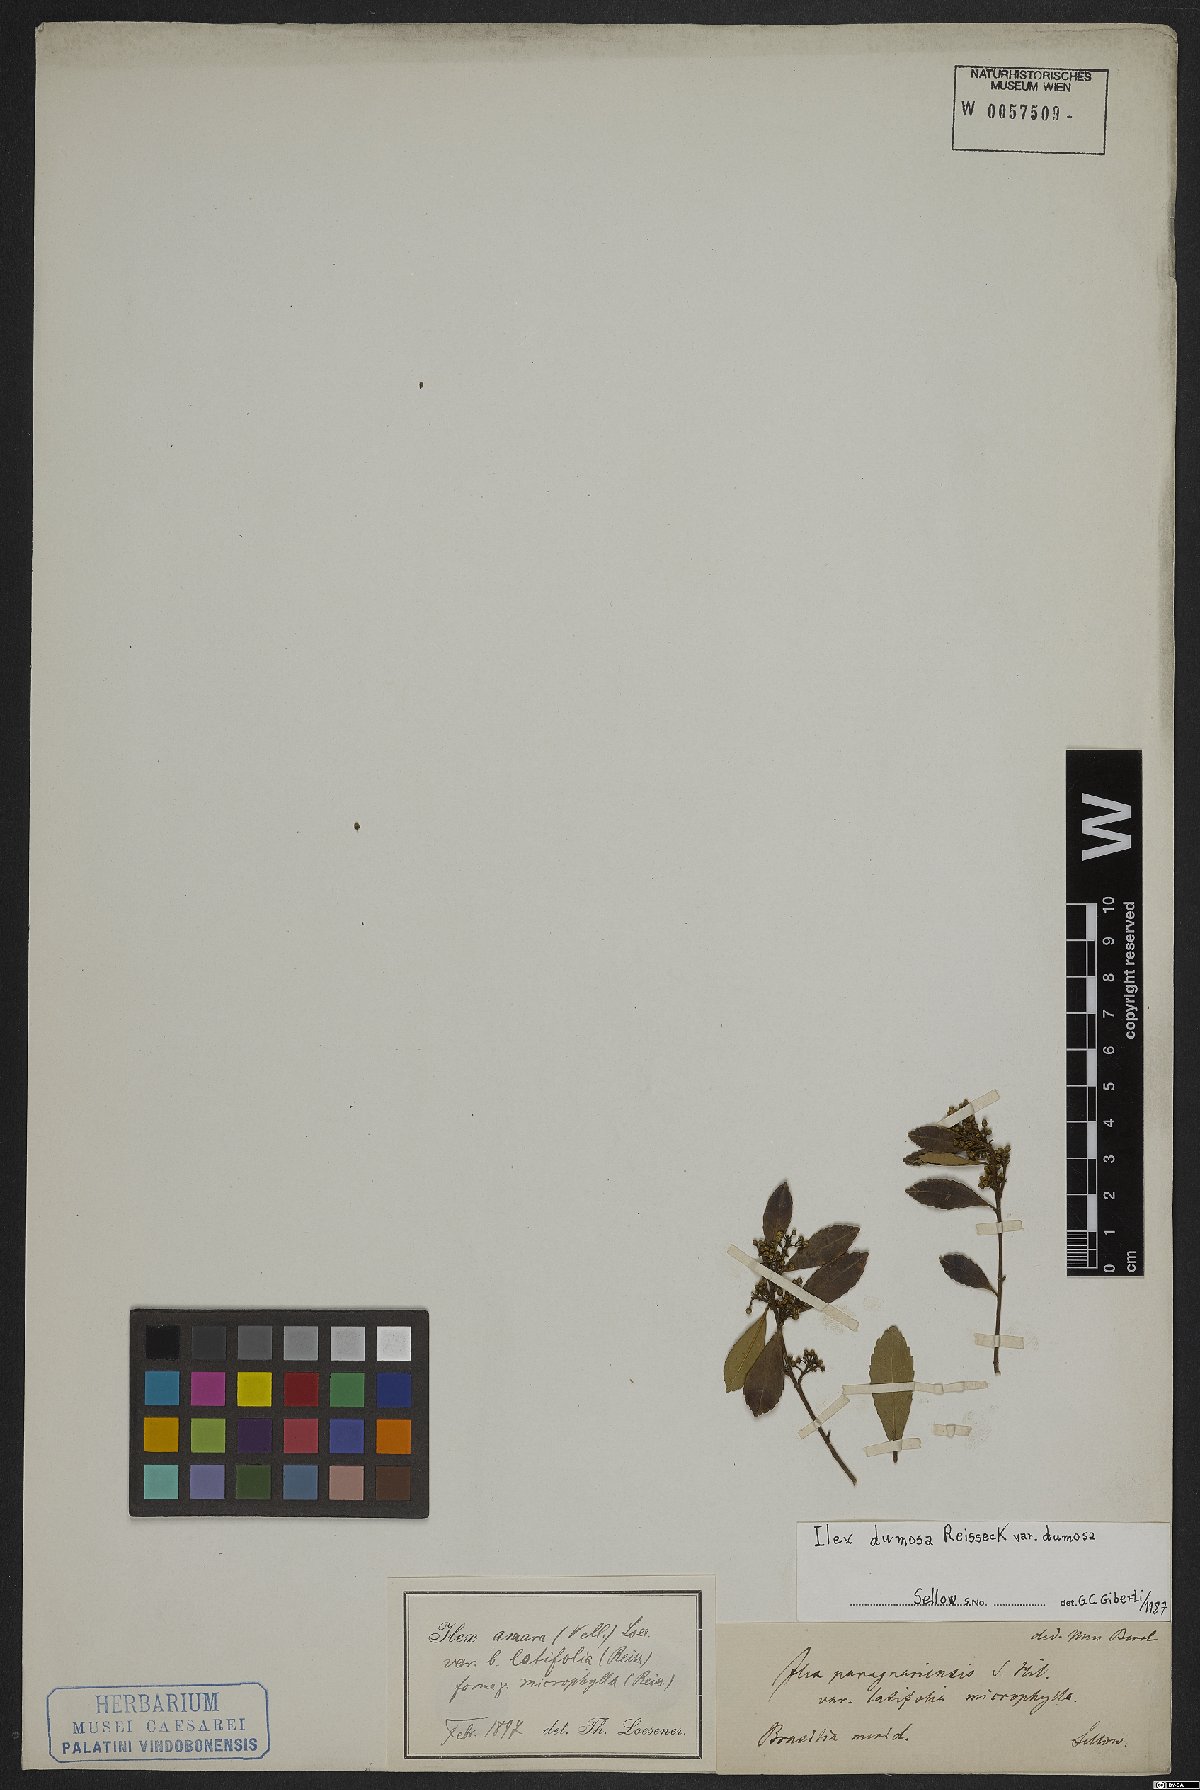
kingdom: Plantae
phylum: Tracheophyta
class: Magnoliopsida
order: Aquifoliales
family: Aquifoliaceae
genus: Ilex
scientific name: Ilex dumosa
